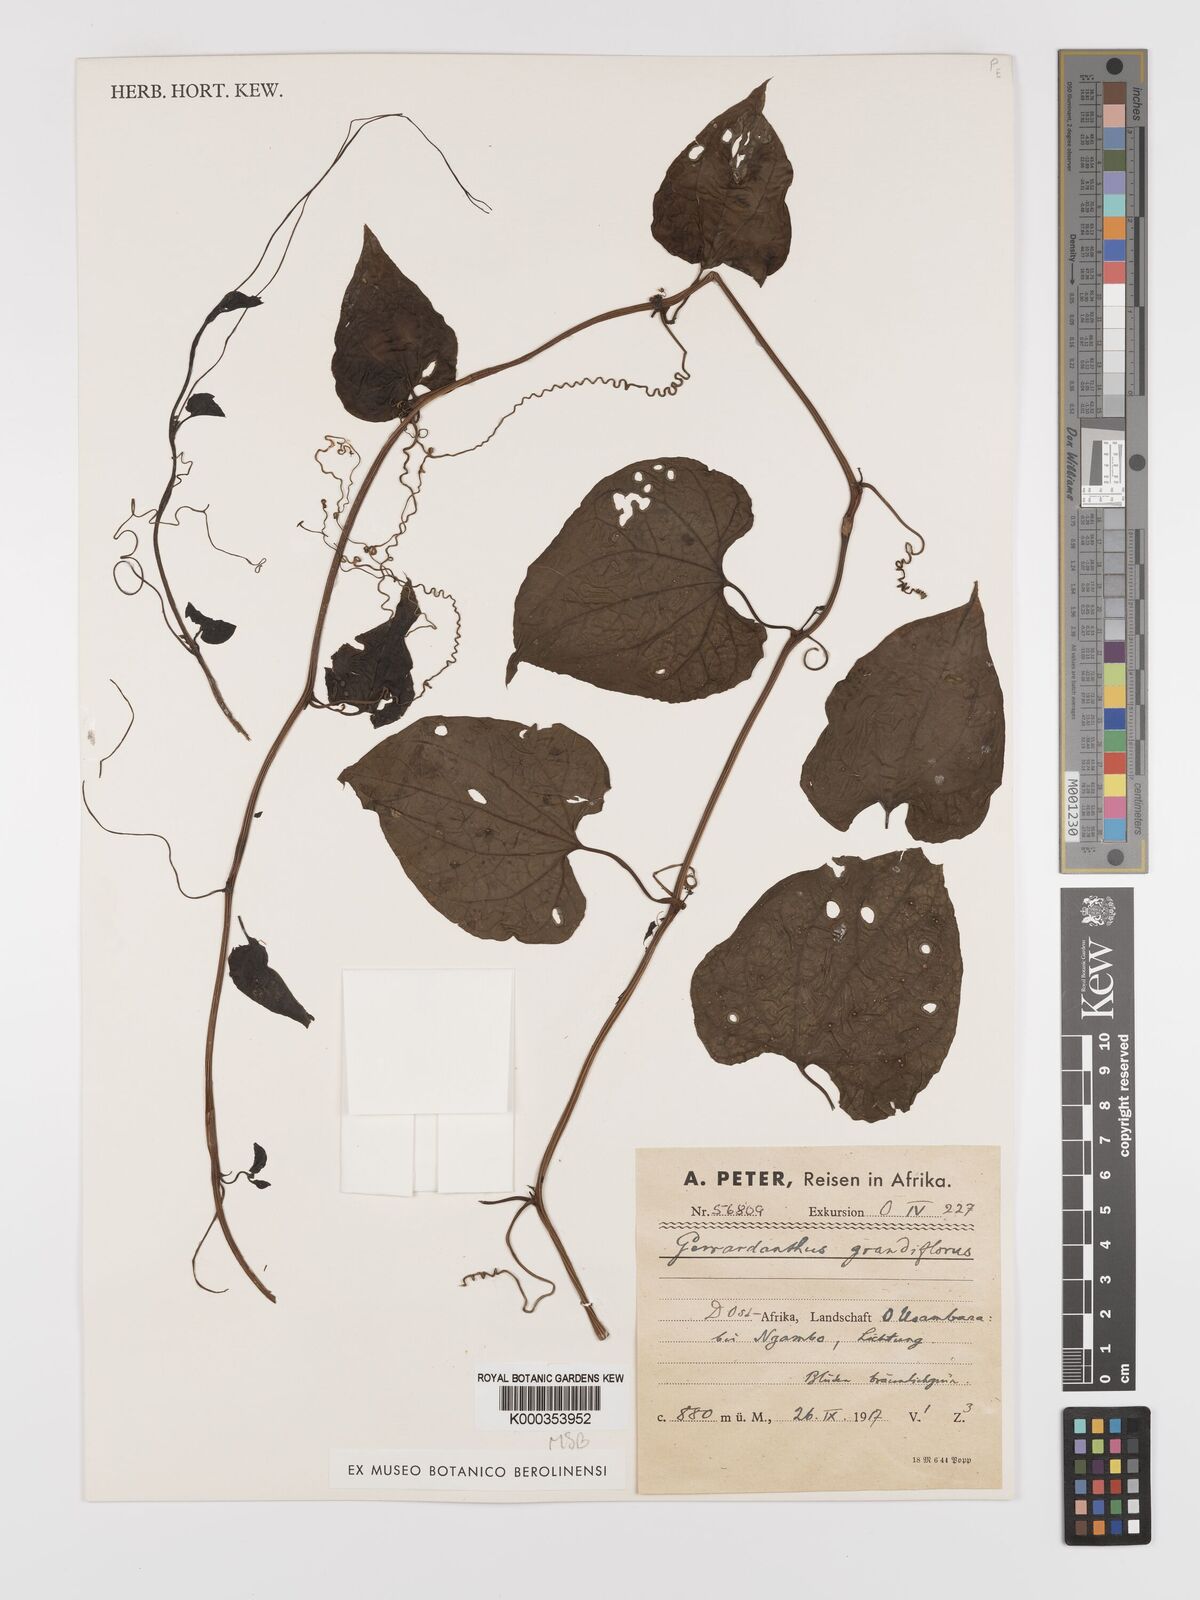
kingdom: Plantae
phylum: Tracheophyta
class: Magnoliopsida
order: Cucurbitales
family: Cucurbitaceae
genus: Gerrardanthus
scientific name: Gerrardanthus
